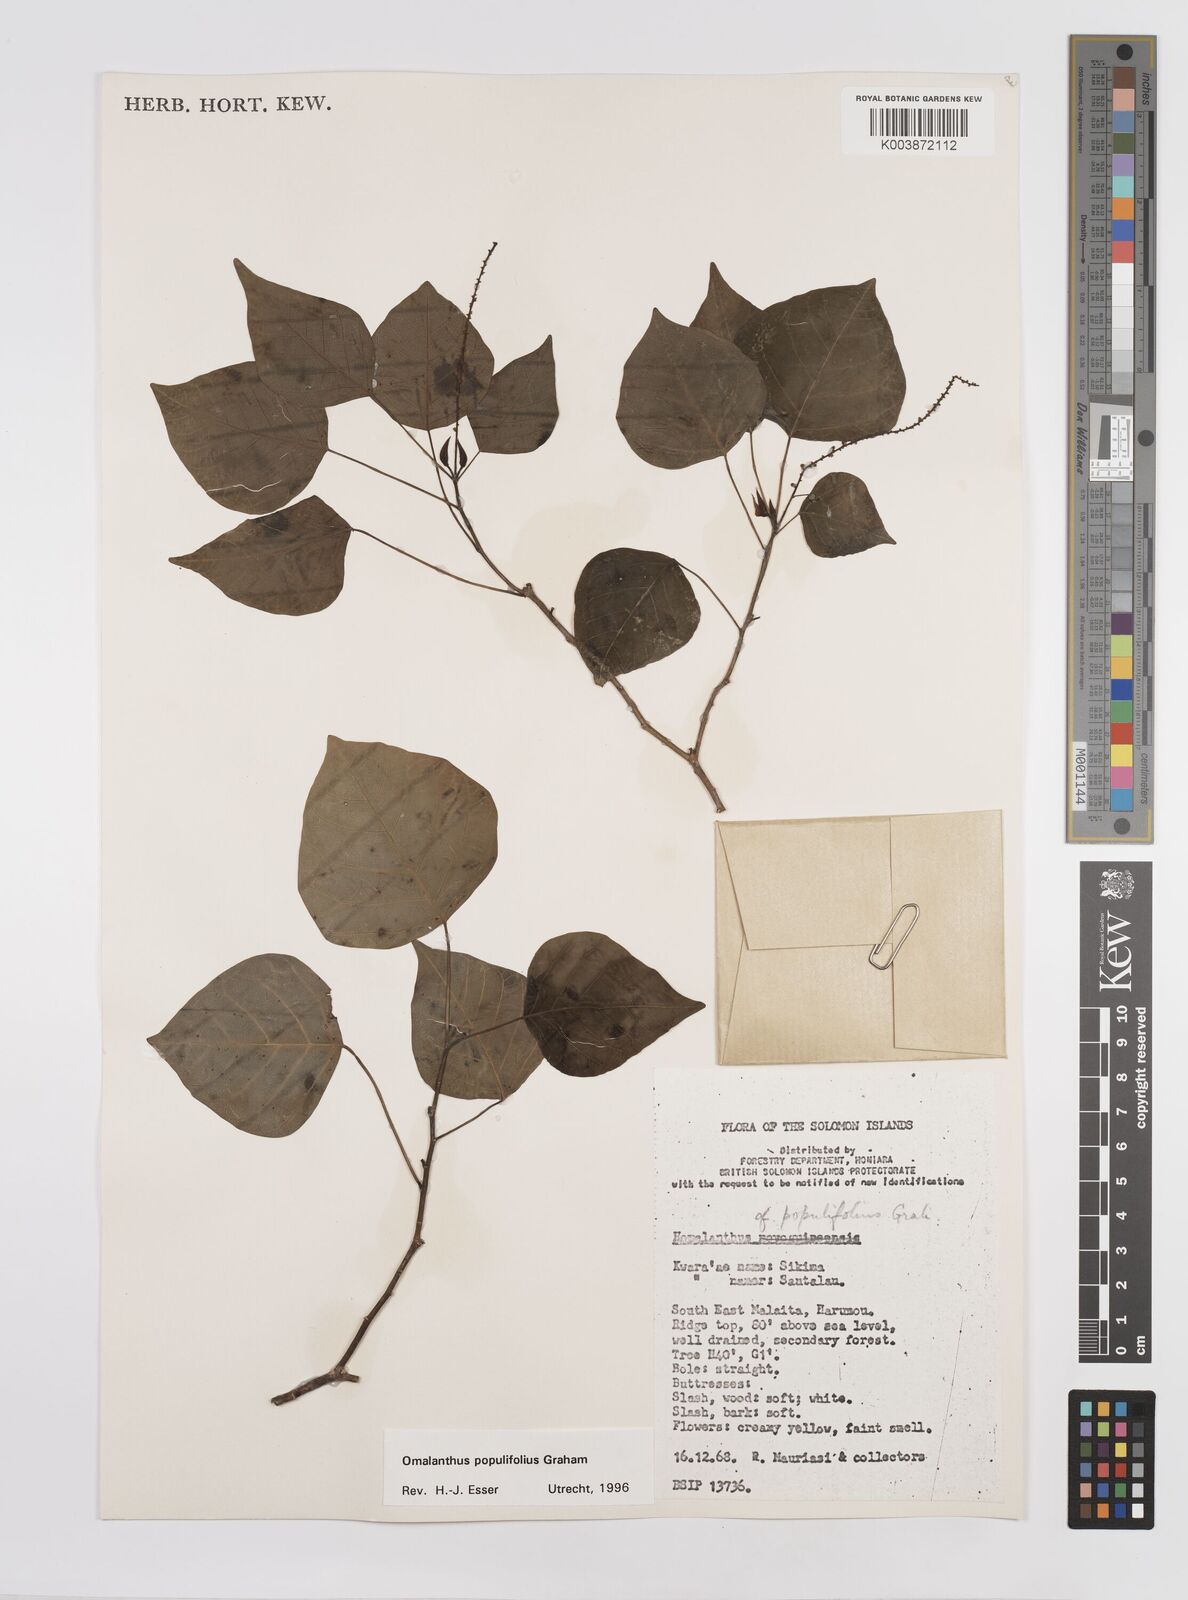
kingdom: Plantae
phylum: Tracheophyta
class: Magnoliopsida
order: Malpighiales
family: Euphorbiaceae
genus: Homalanthus
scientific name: Homalanthus populifolius
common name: Queensland poplar
